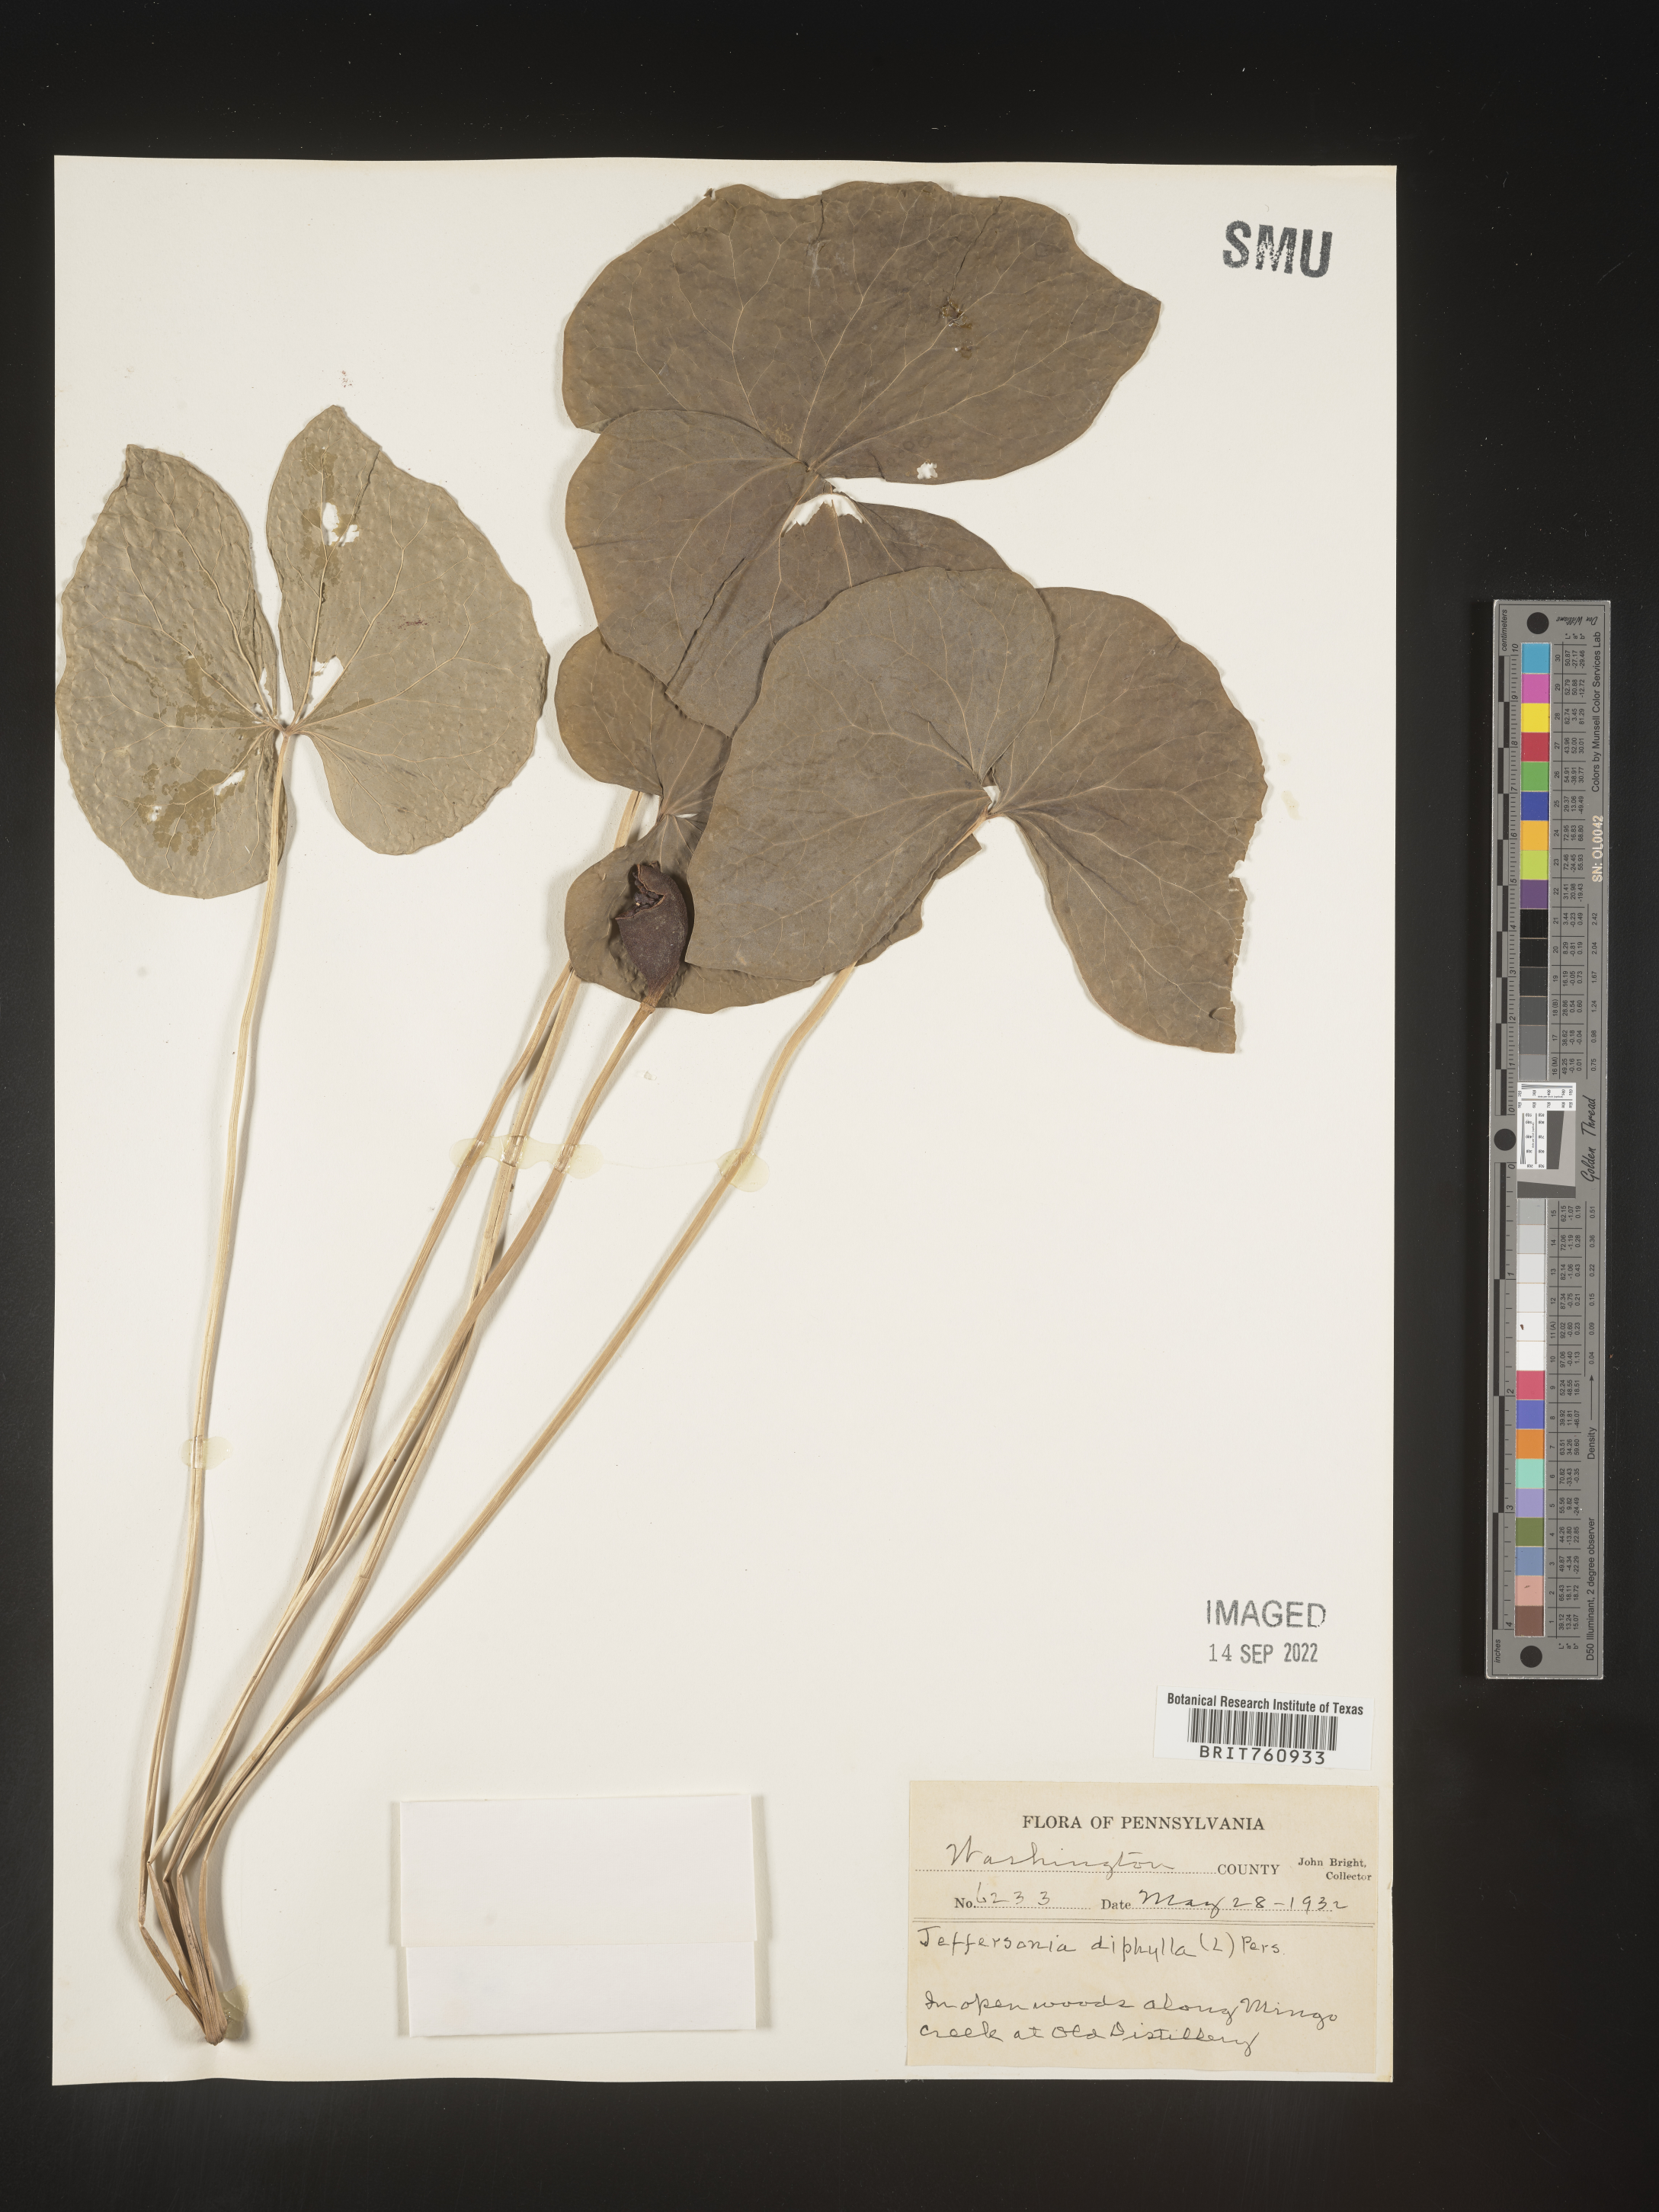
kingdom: Plantae
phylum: Tracheophyta
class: Magnoliopsida
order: Ranunculales
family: Berberidaceae
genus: Jeffersonia
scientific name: Jeffersonia
